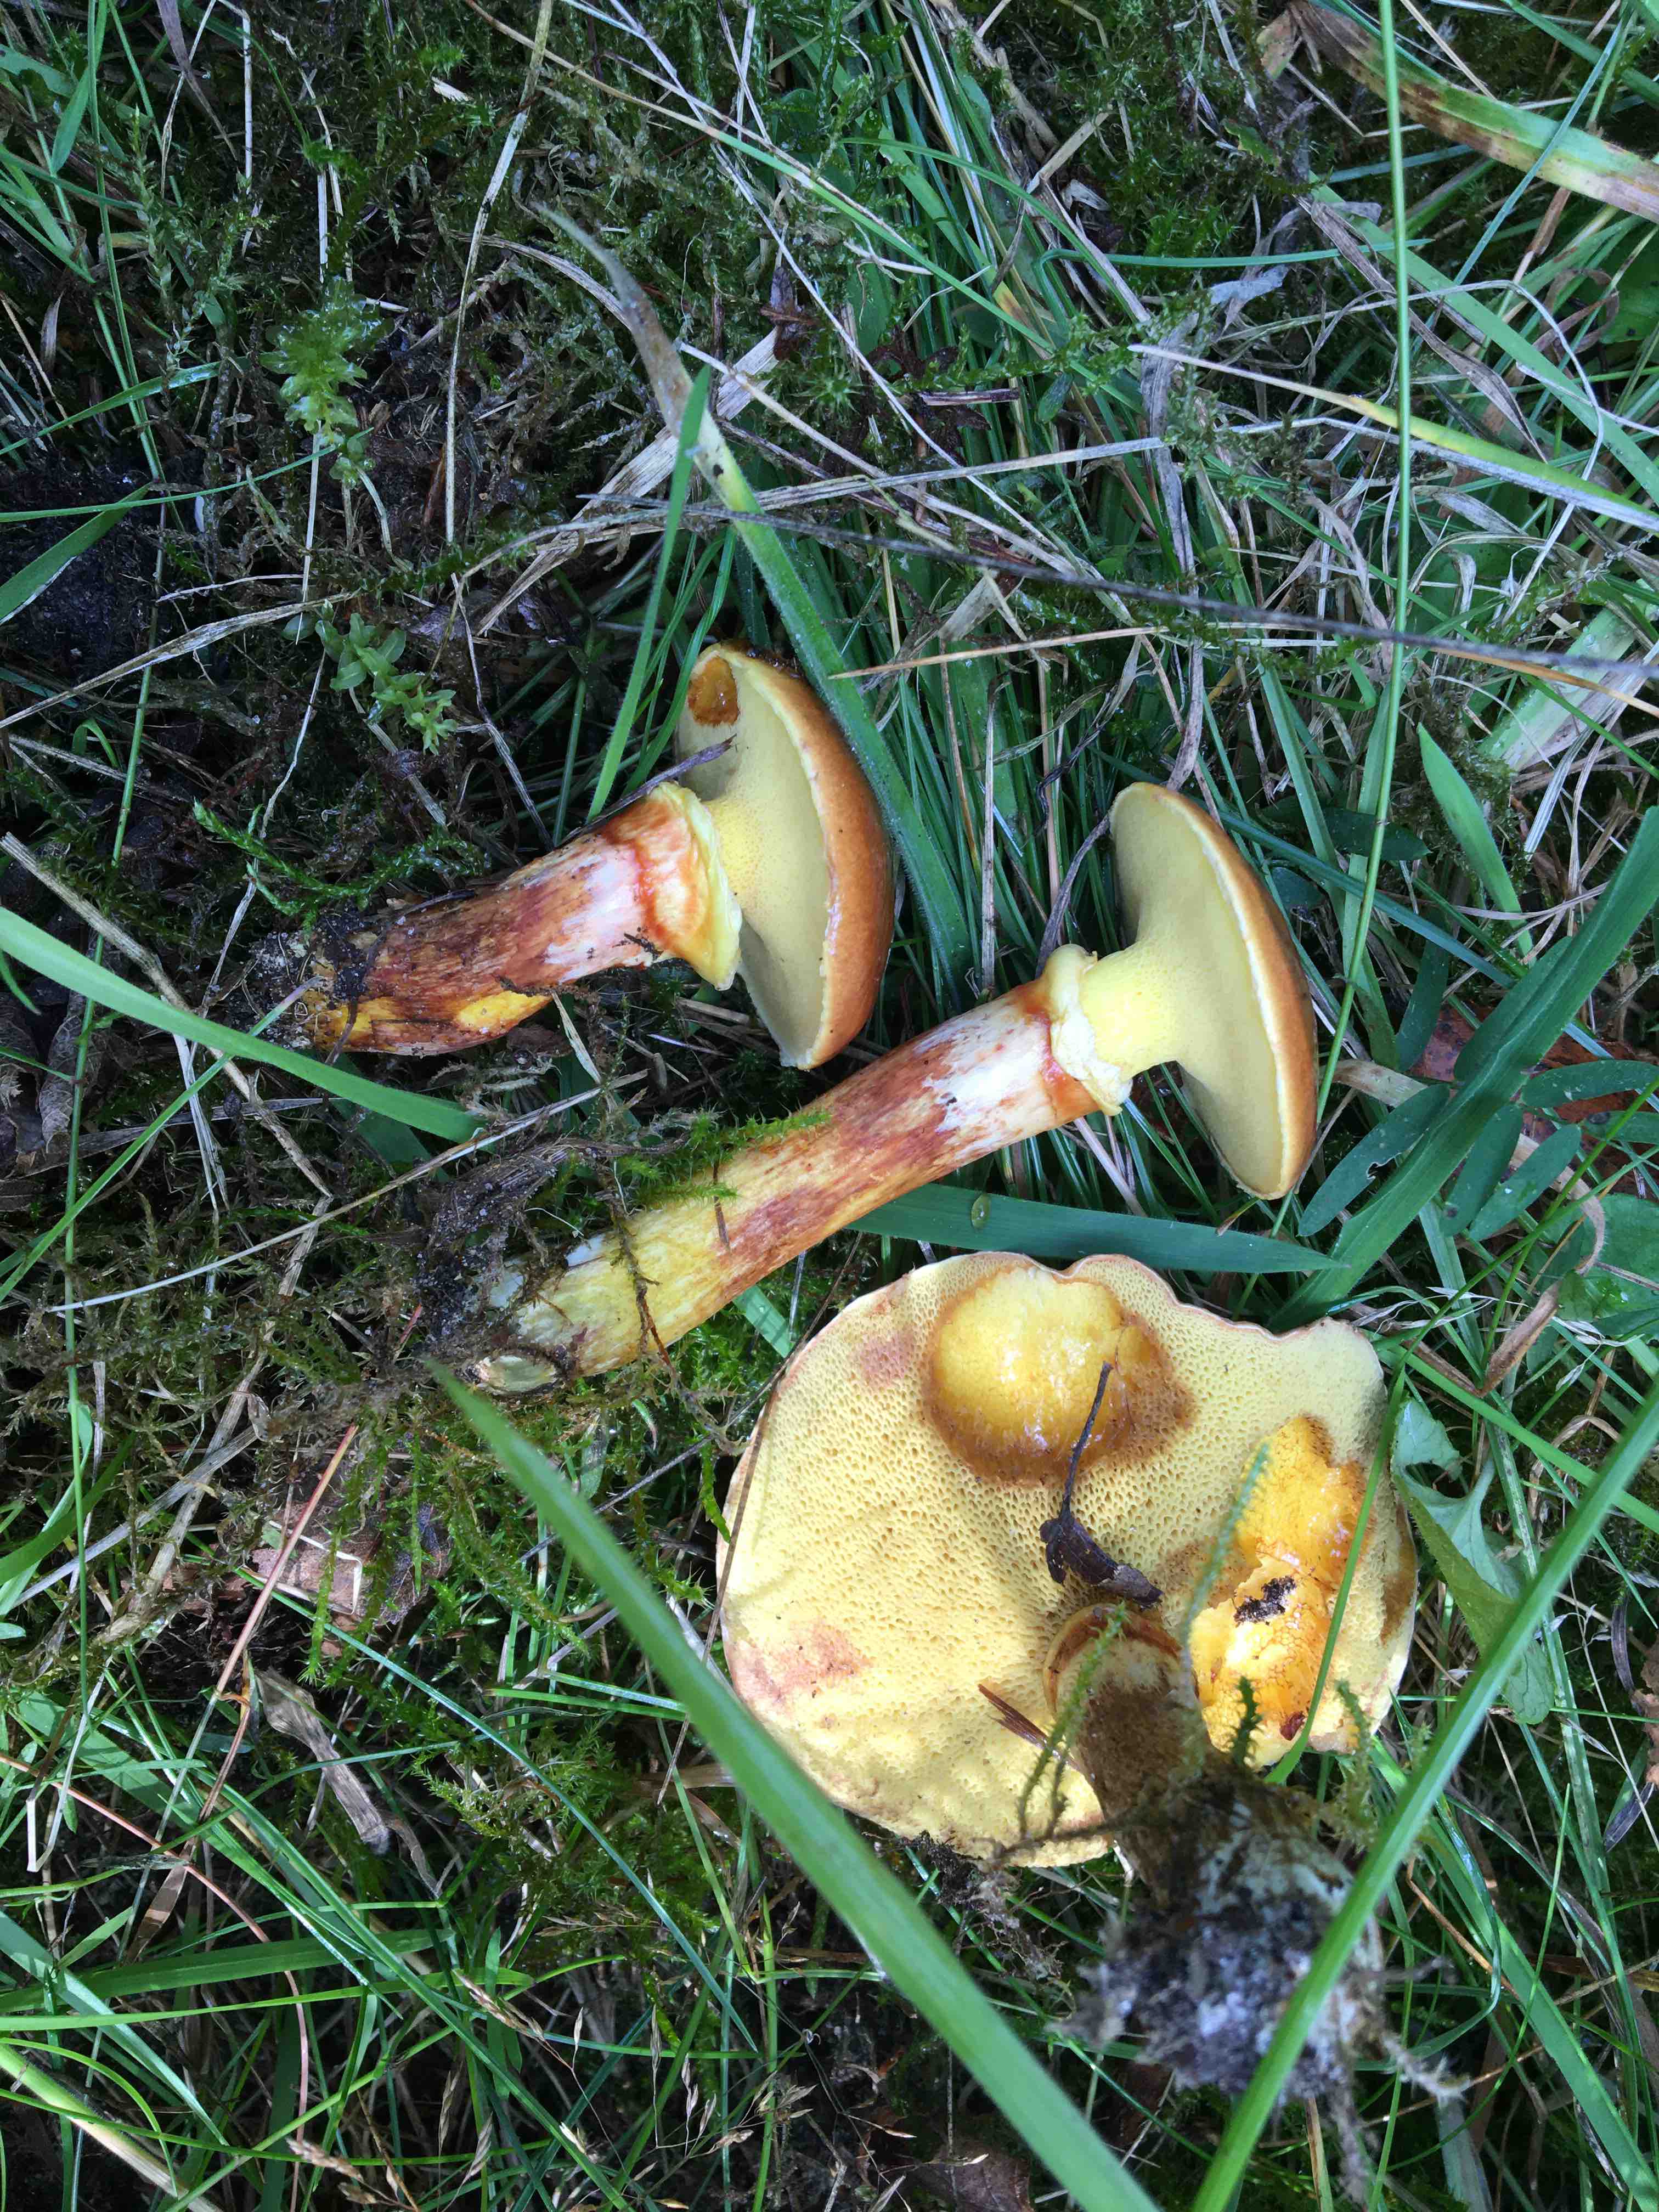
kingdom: Fungi
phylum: Basidiomycota
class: Agaricomycetes
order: Boletales
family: Suillaceae
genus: Suillus
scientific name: Suillus grevillei
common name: lærke-slimrørhat
